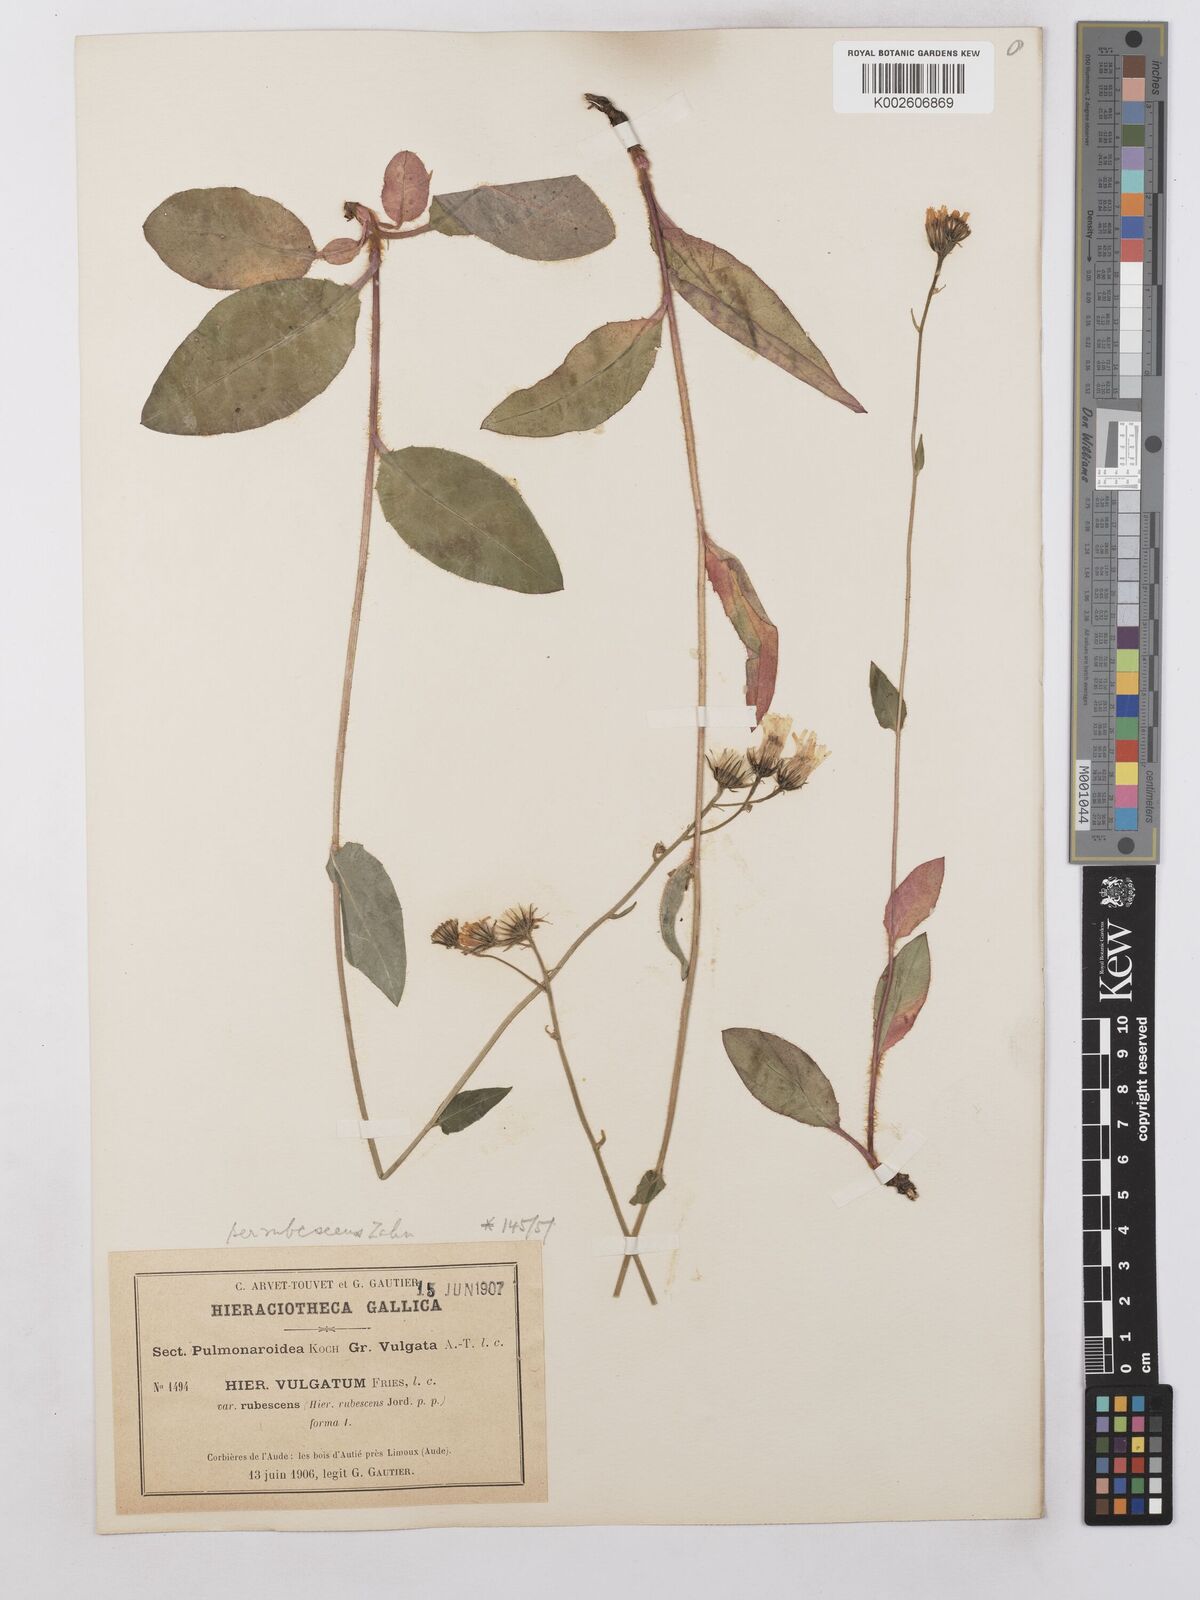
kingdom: Plantae
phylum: Tracheophyta
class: Magnoliopsida
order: Asterales
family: Asteraceae
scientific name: Asteraceae
